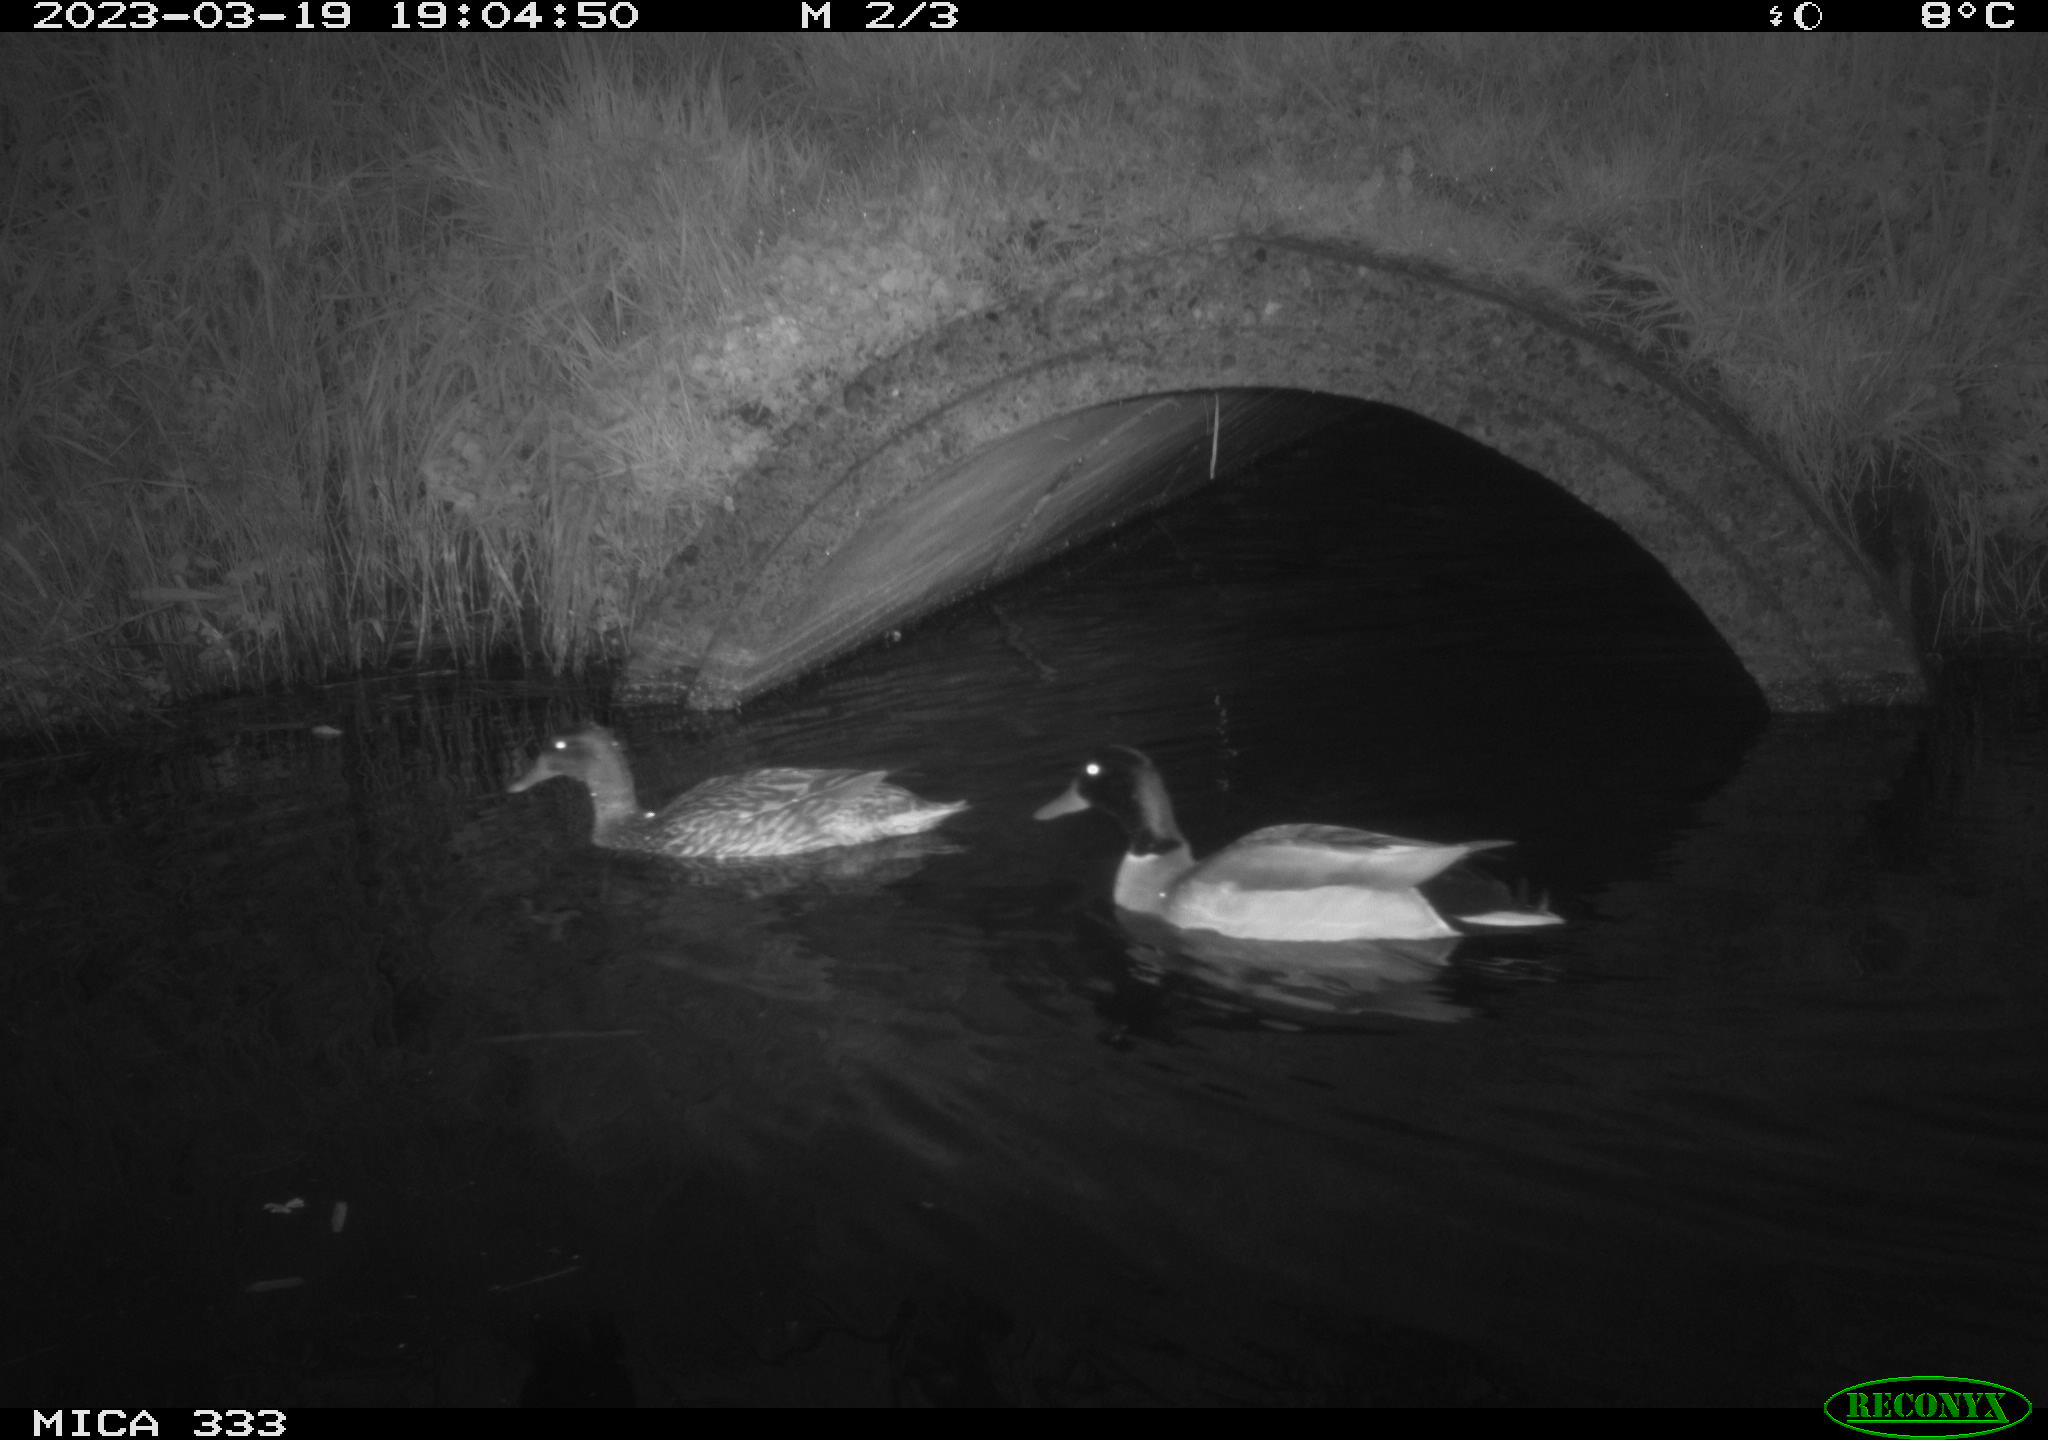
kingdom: Animalia
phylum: Chordata
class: Aves
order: Anseriformes
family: Anatidae
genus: Anas
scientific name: Anas
